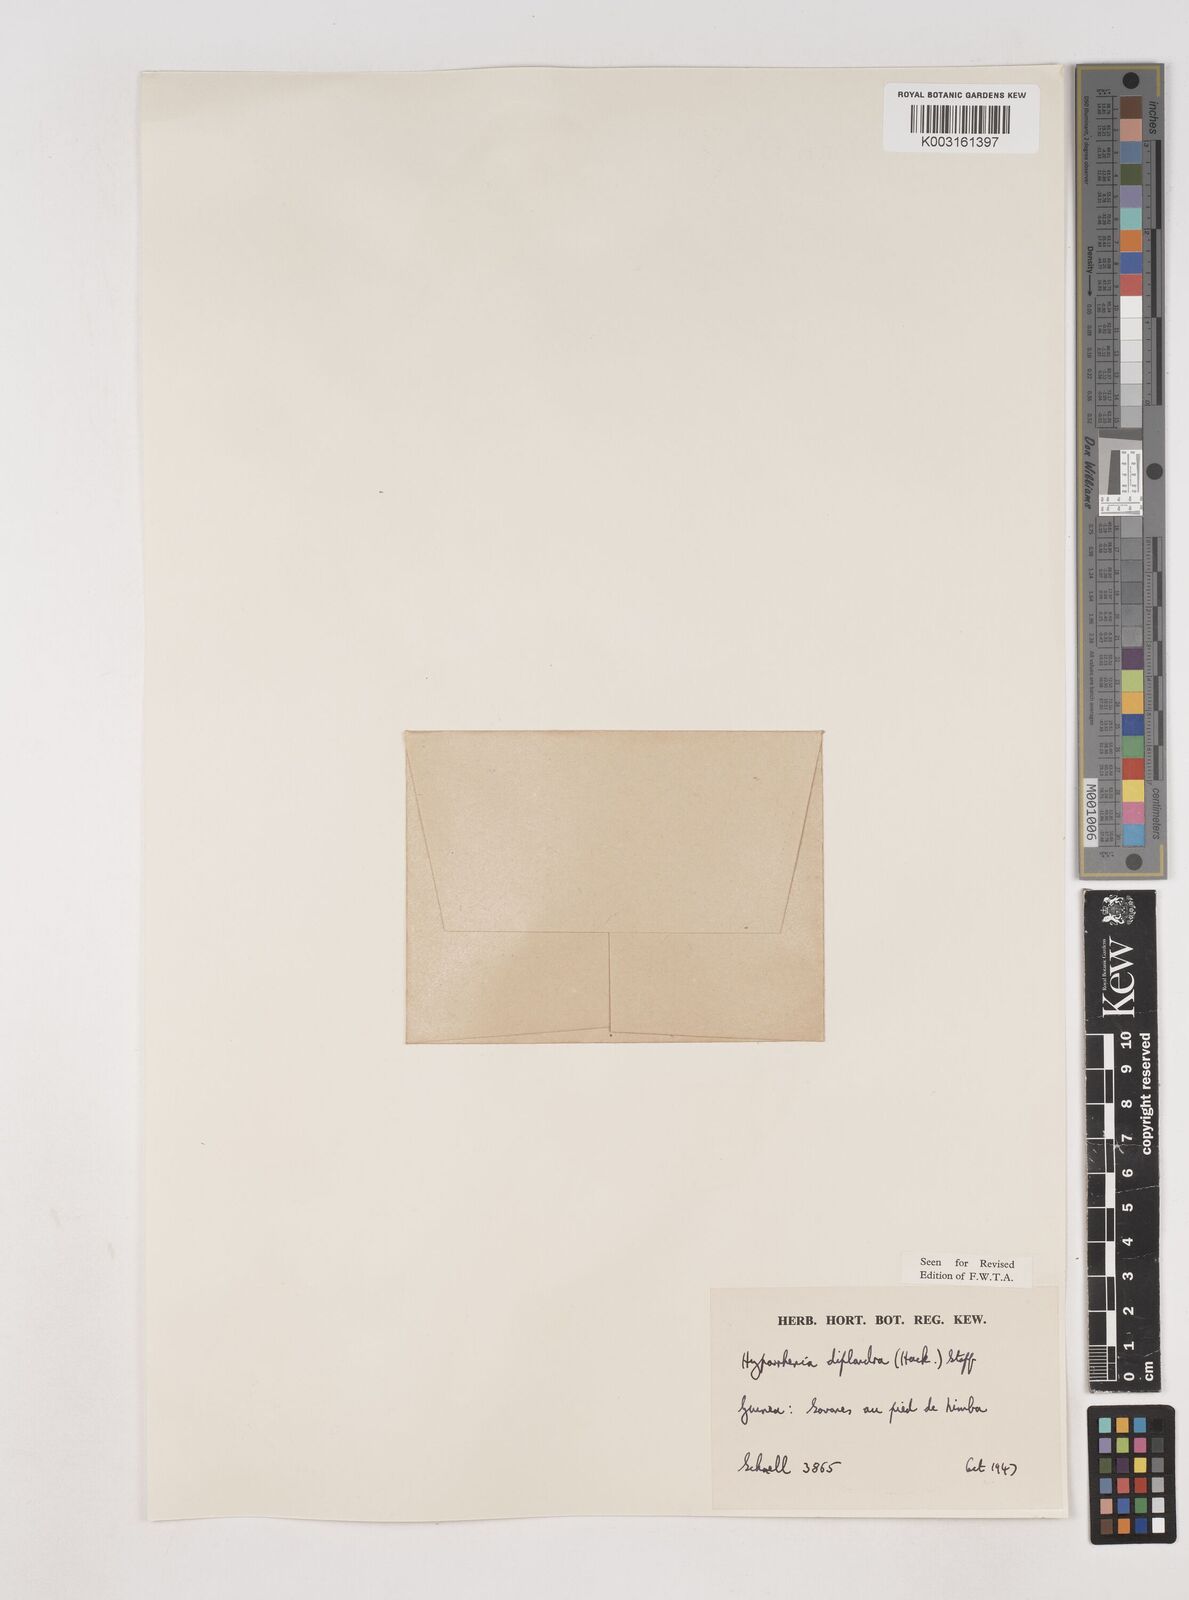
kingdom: Plantae
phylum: Tracheophyta
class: Liliopsida
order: Poales
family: Poaceae
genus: Hyparrhenia
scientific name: Hyparrhenia diplandra
